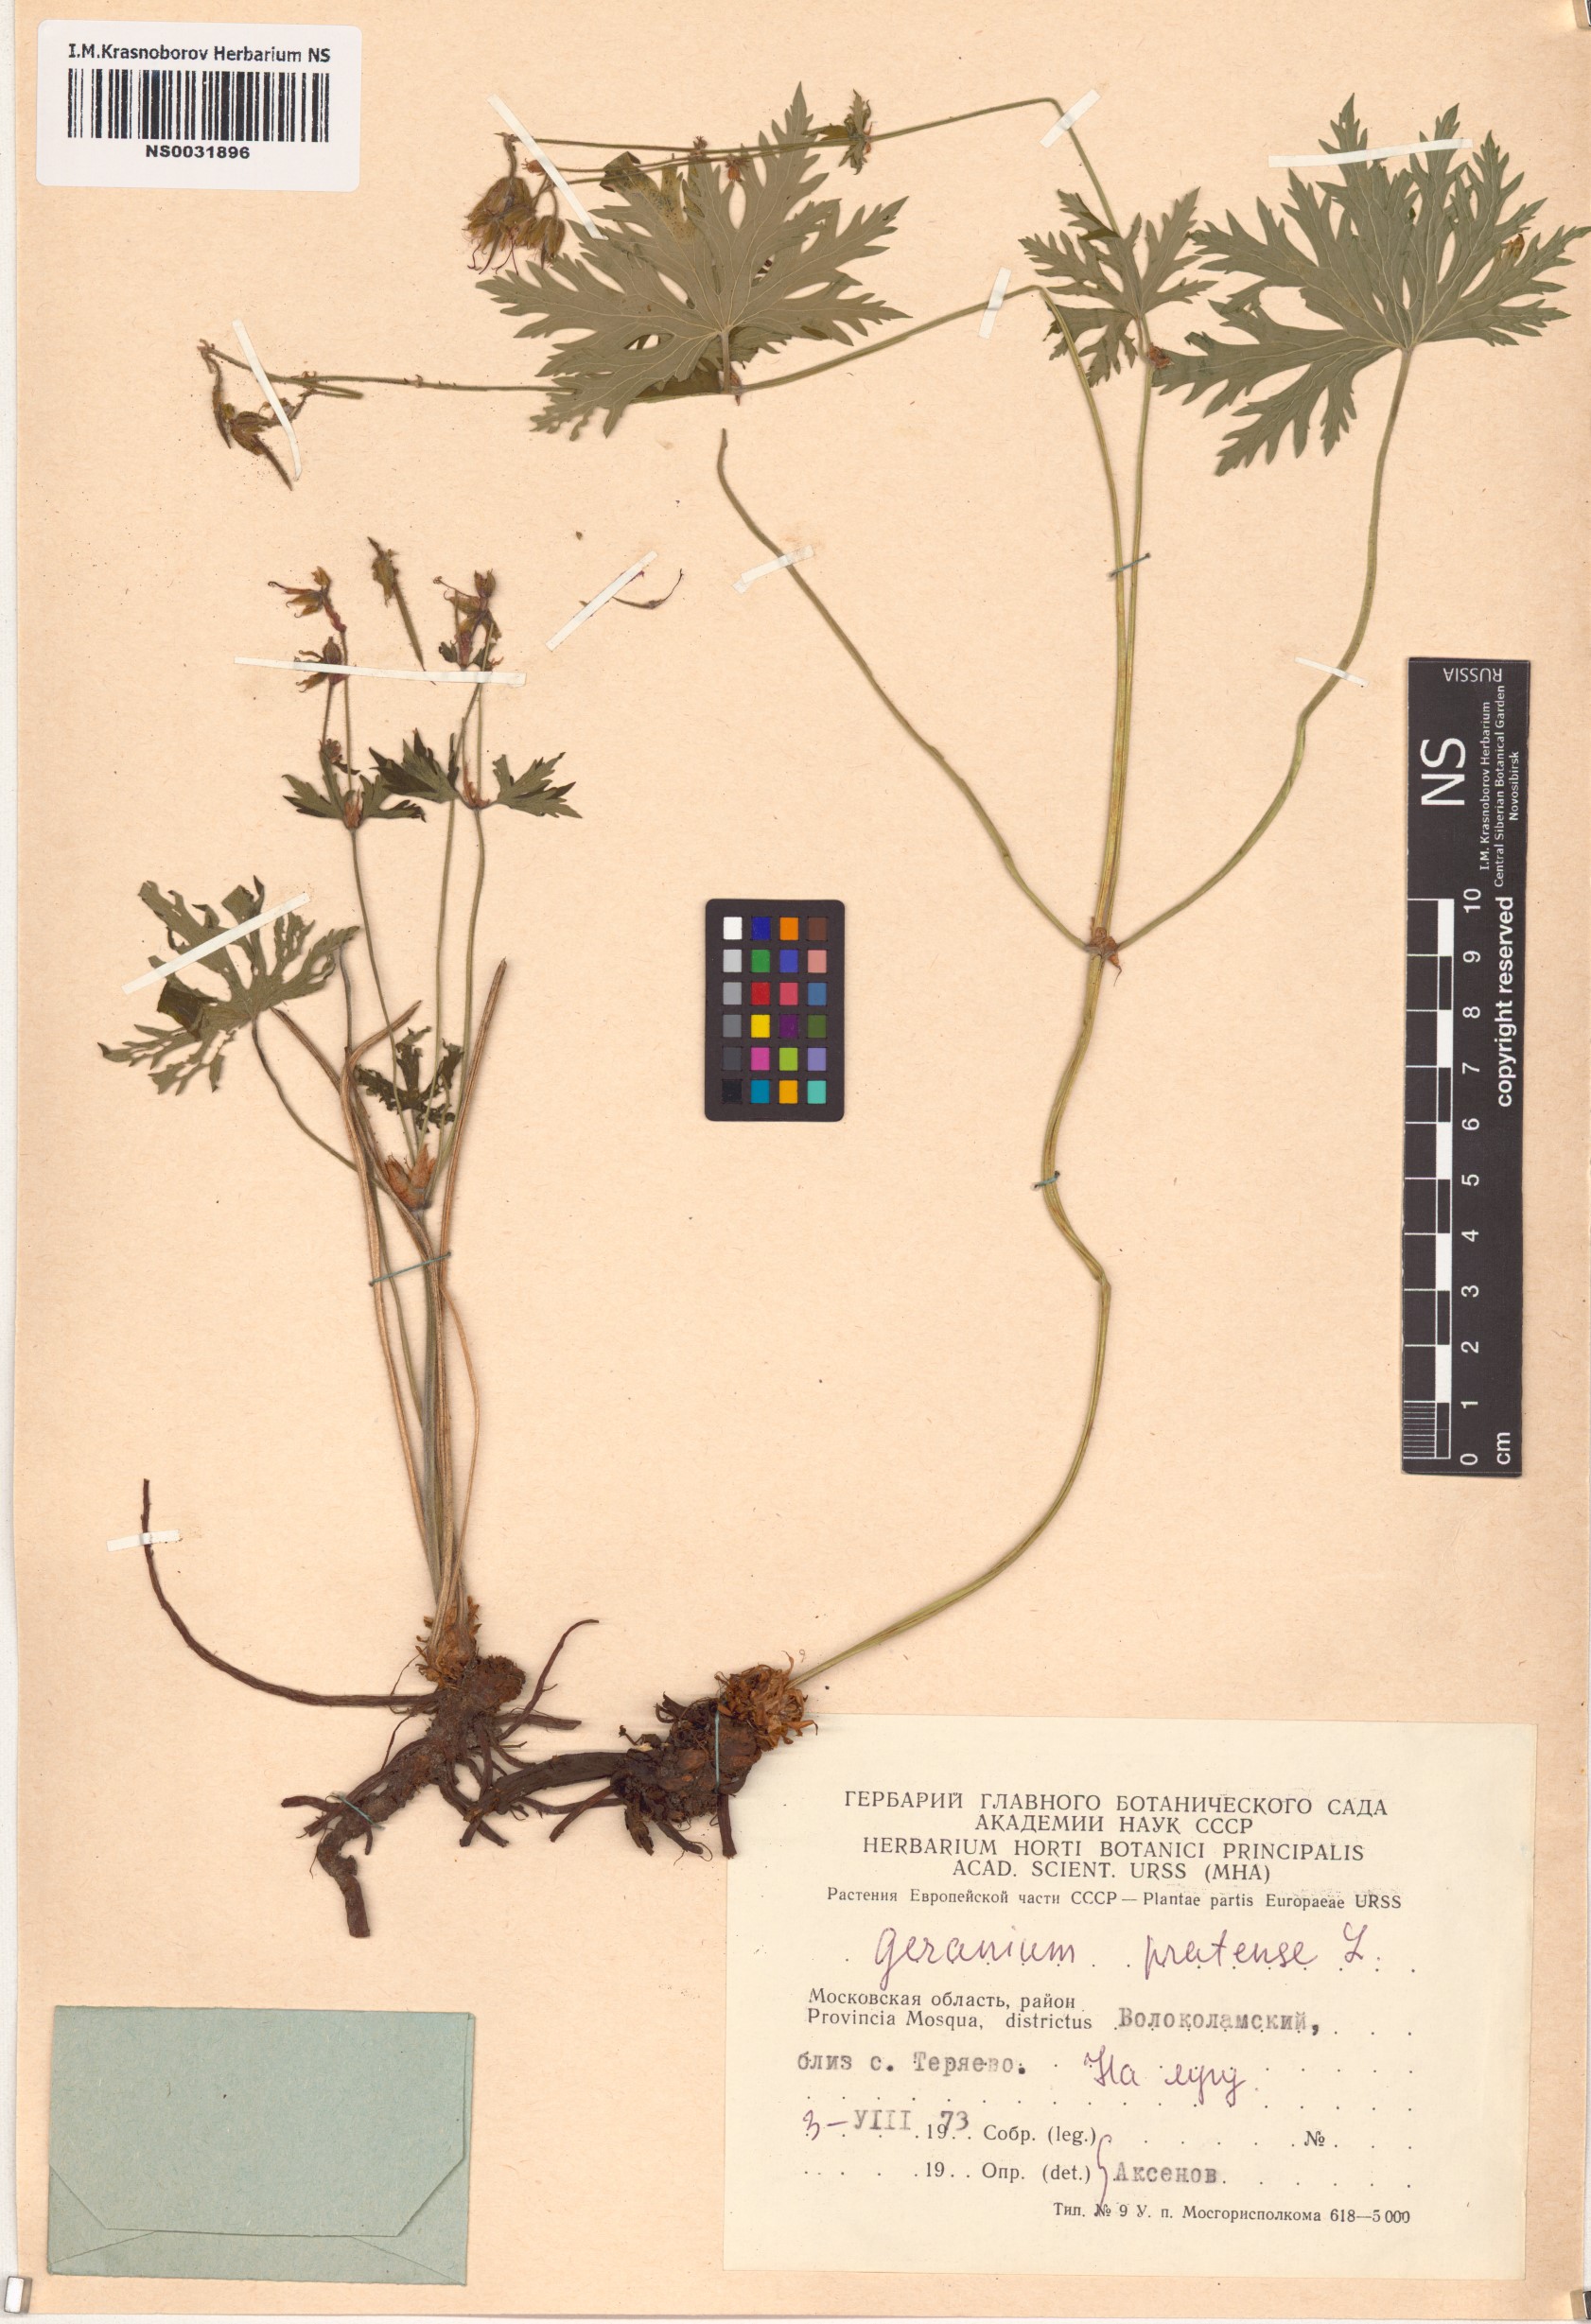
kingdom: Plantae
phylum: Tracheophyta
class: Magnoliopsida
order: Geraniales
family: Geraniaceae
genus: Geranium
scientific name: Geranium pratense
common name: Meadow crane's-bill
